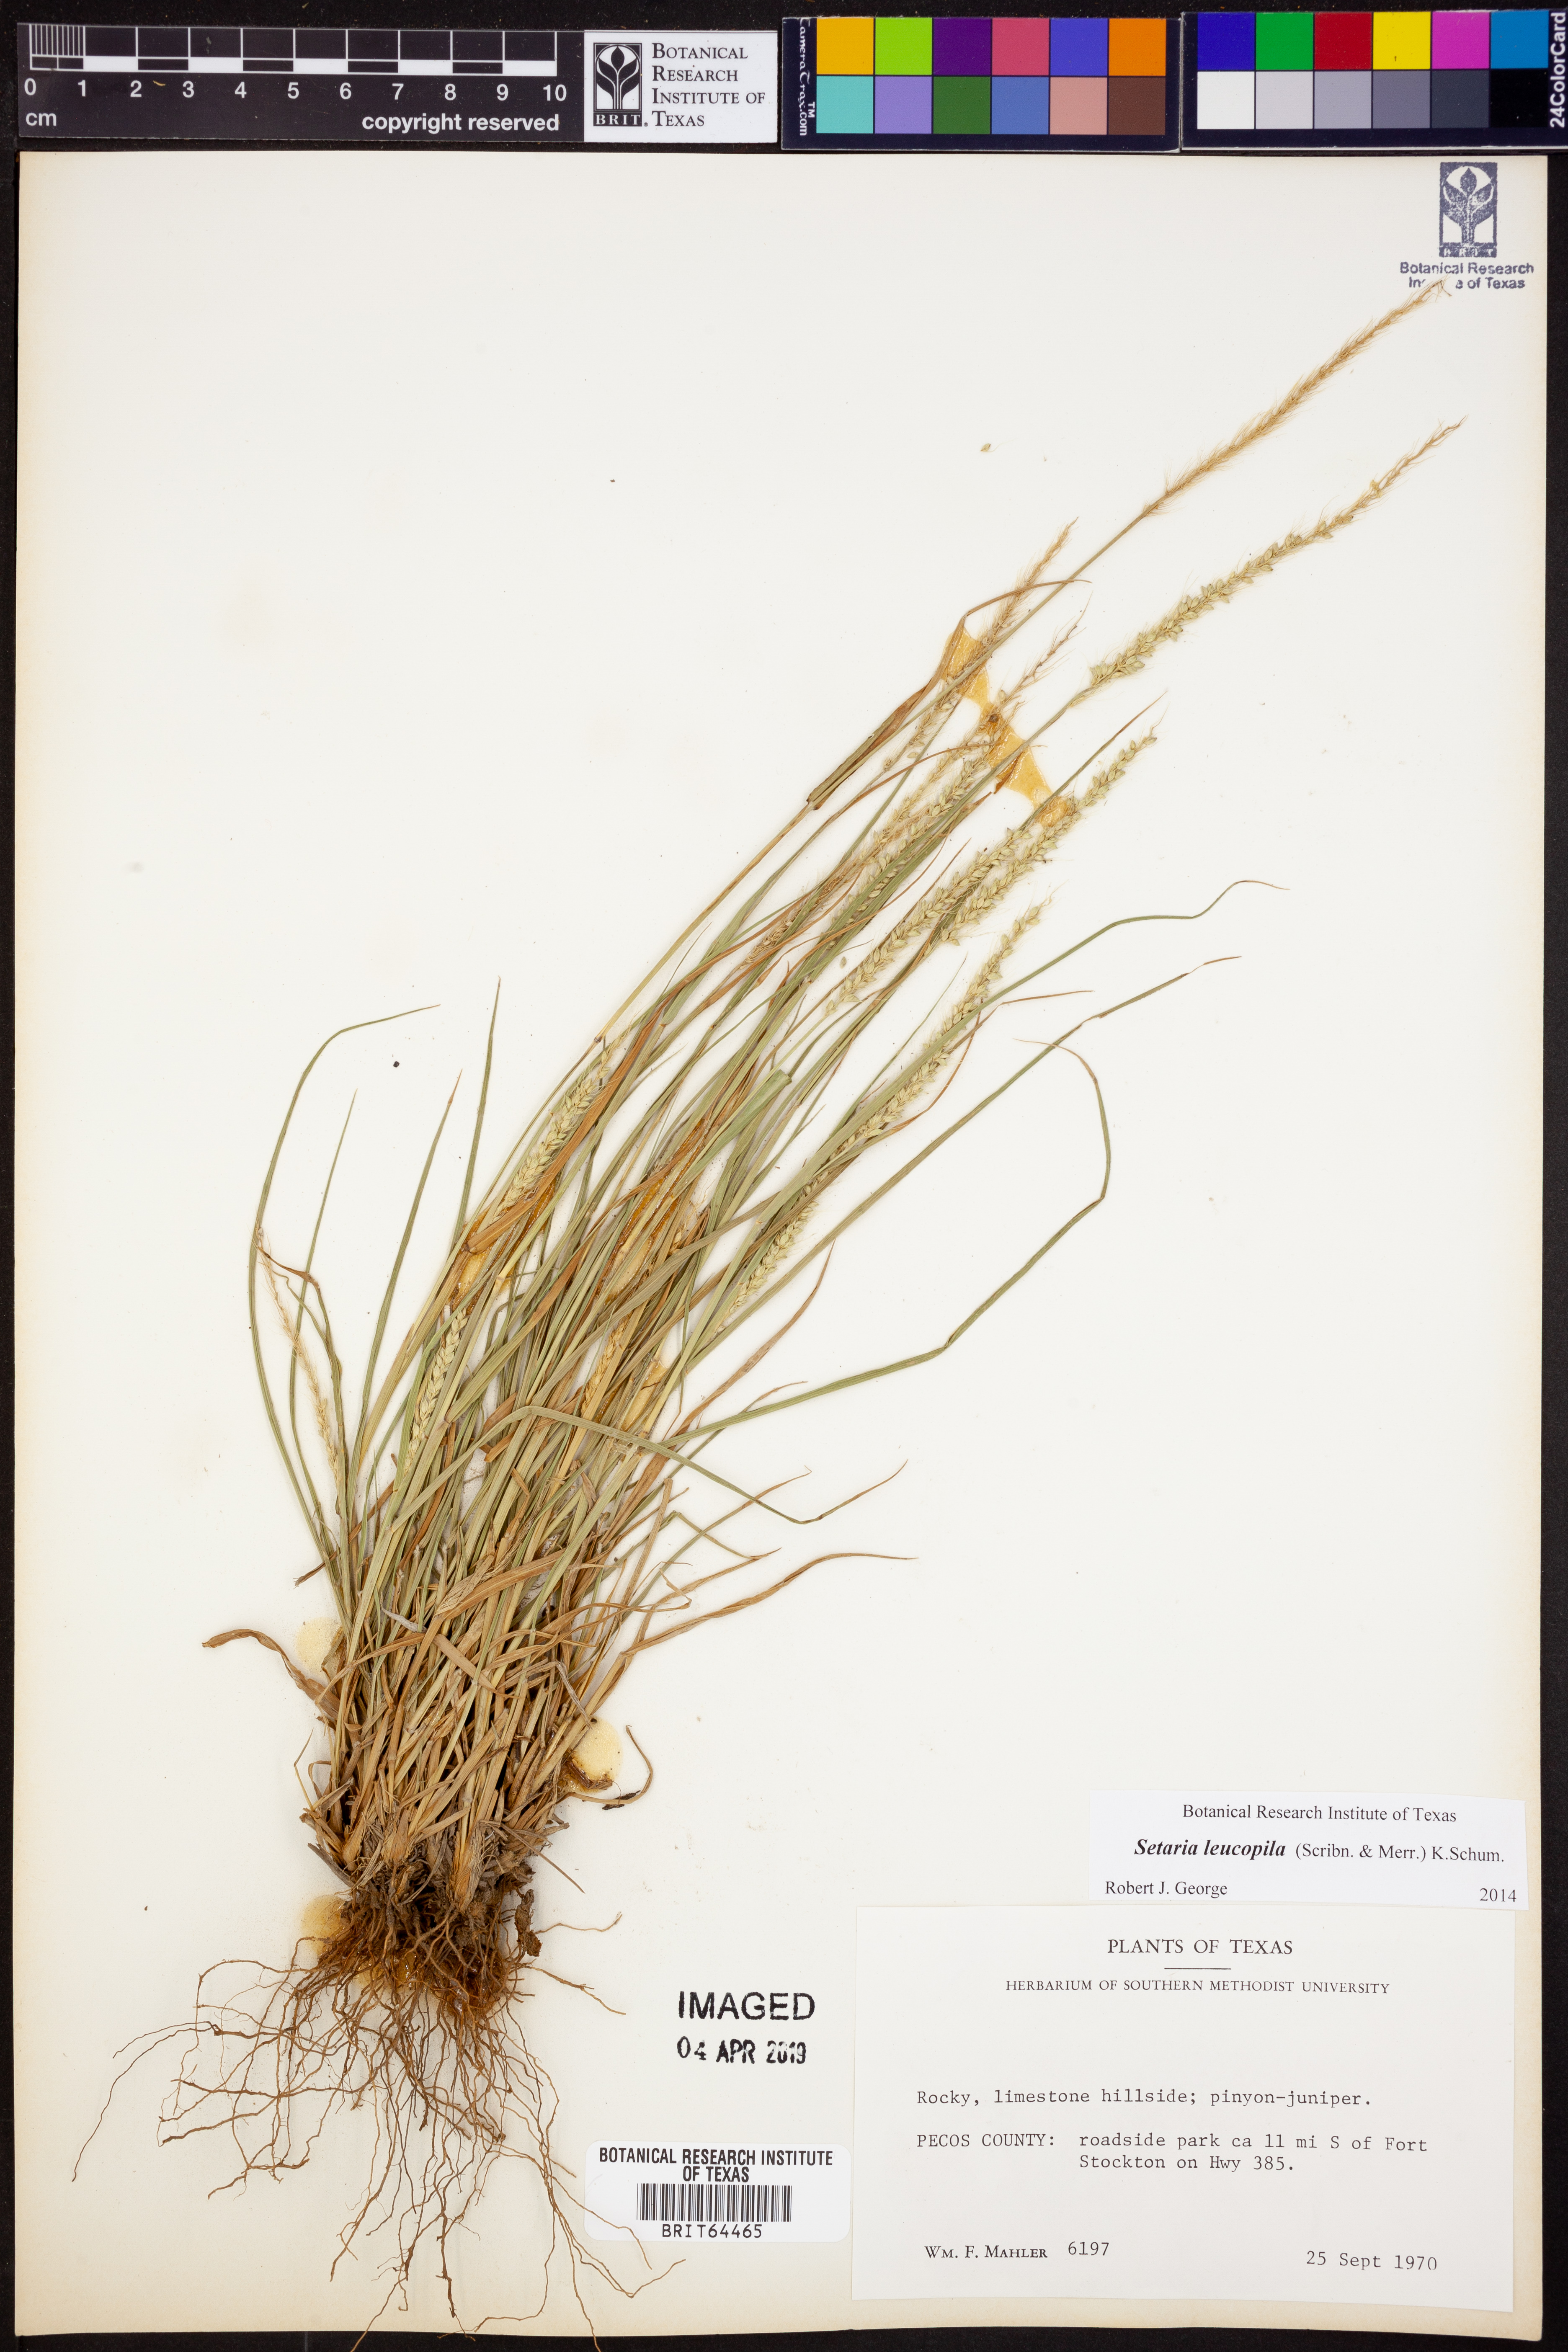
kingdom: Plantae
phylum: Tracheophyta
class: Liliopsida
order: Poales
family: Poaceae
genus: Setaria
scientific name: Setaria leucopila
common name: Plains bristle grass
